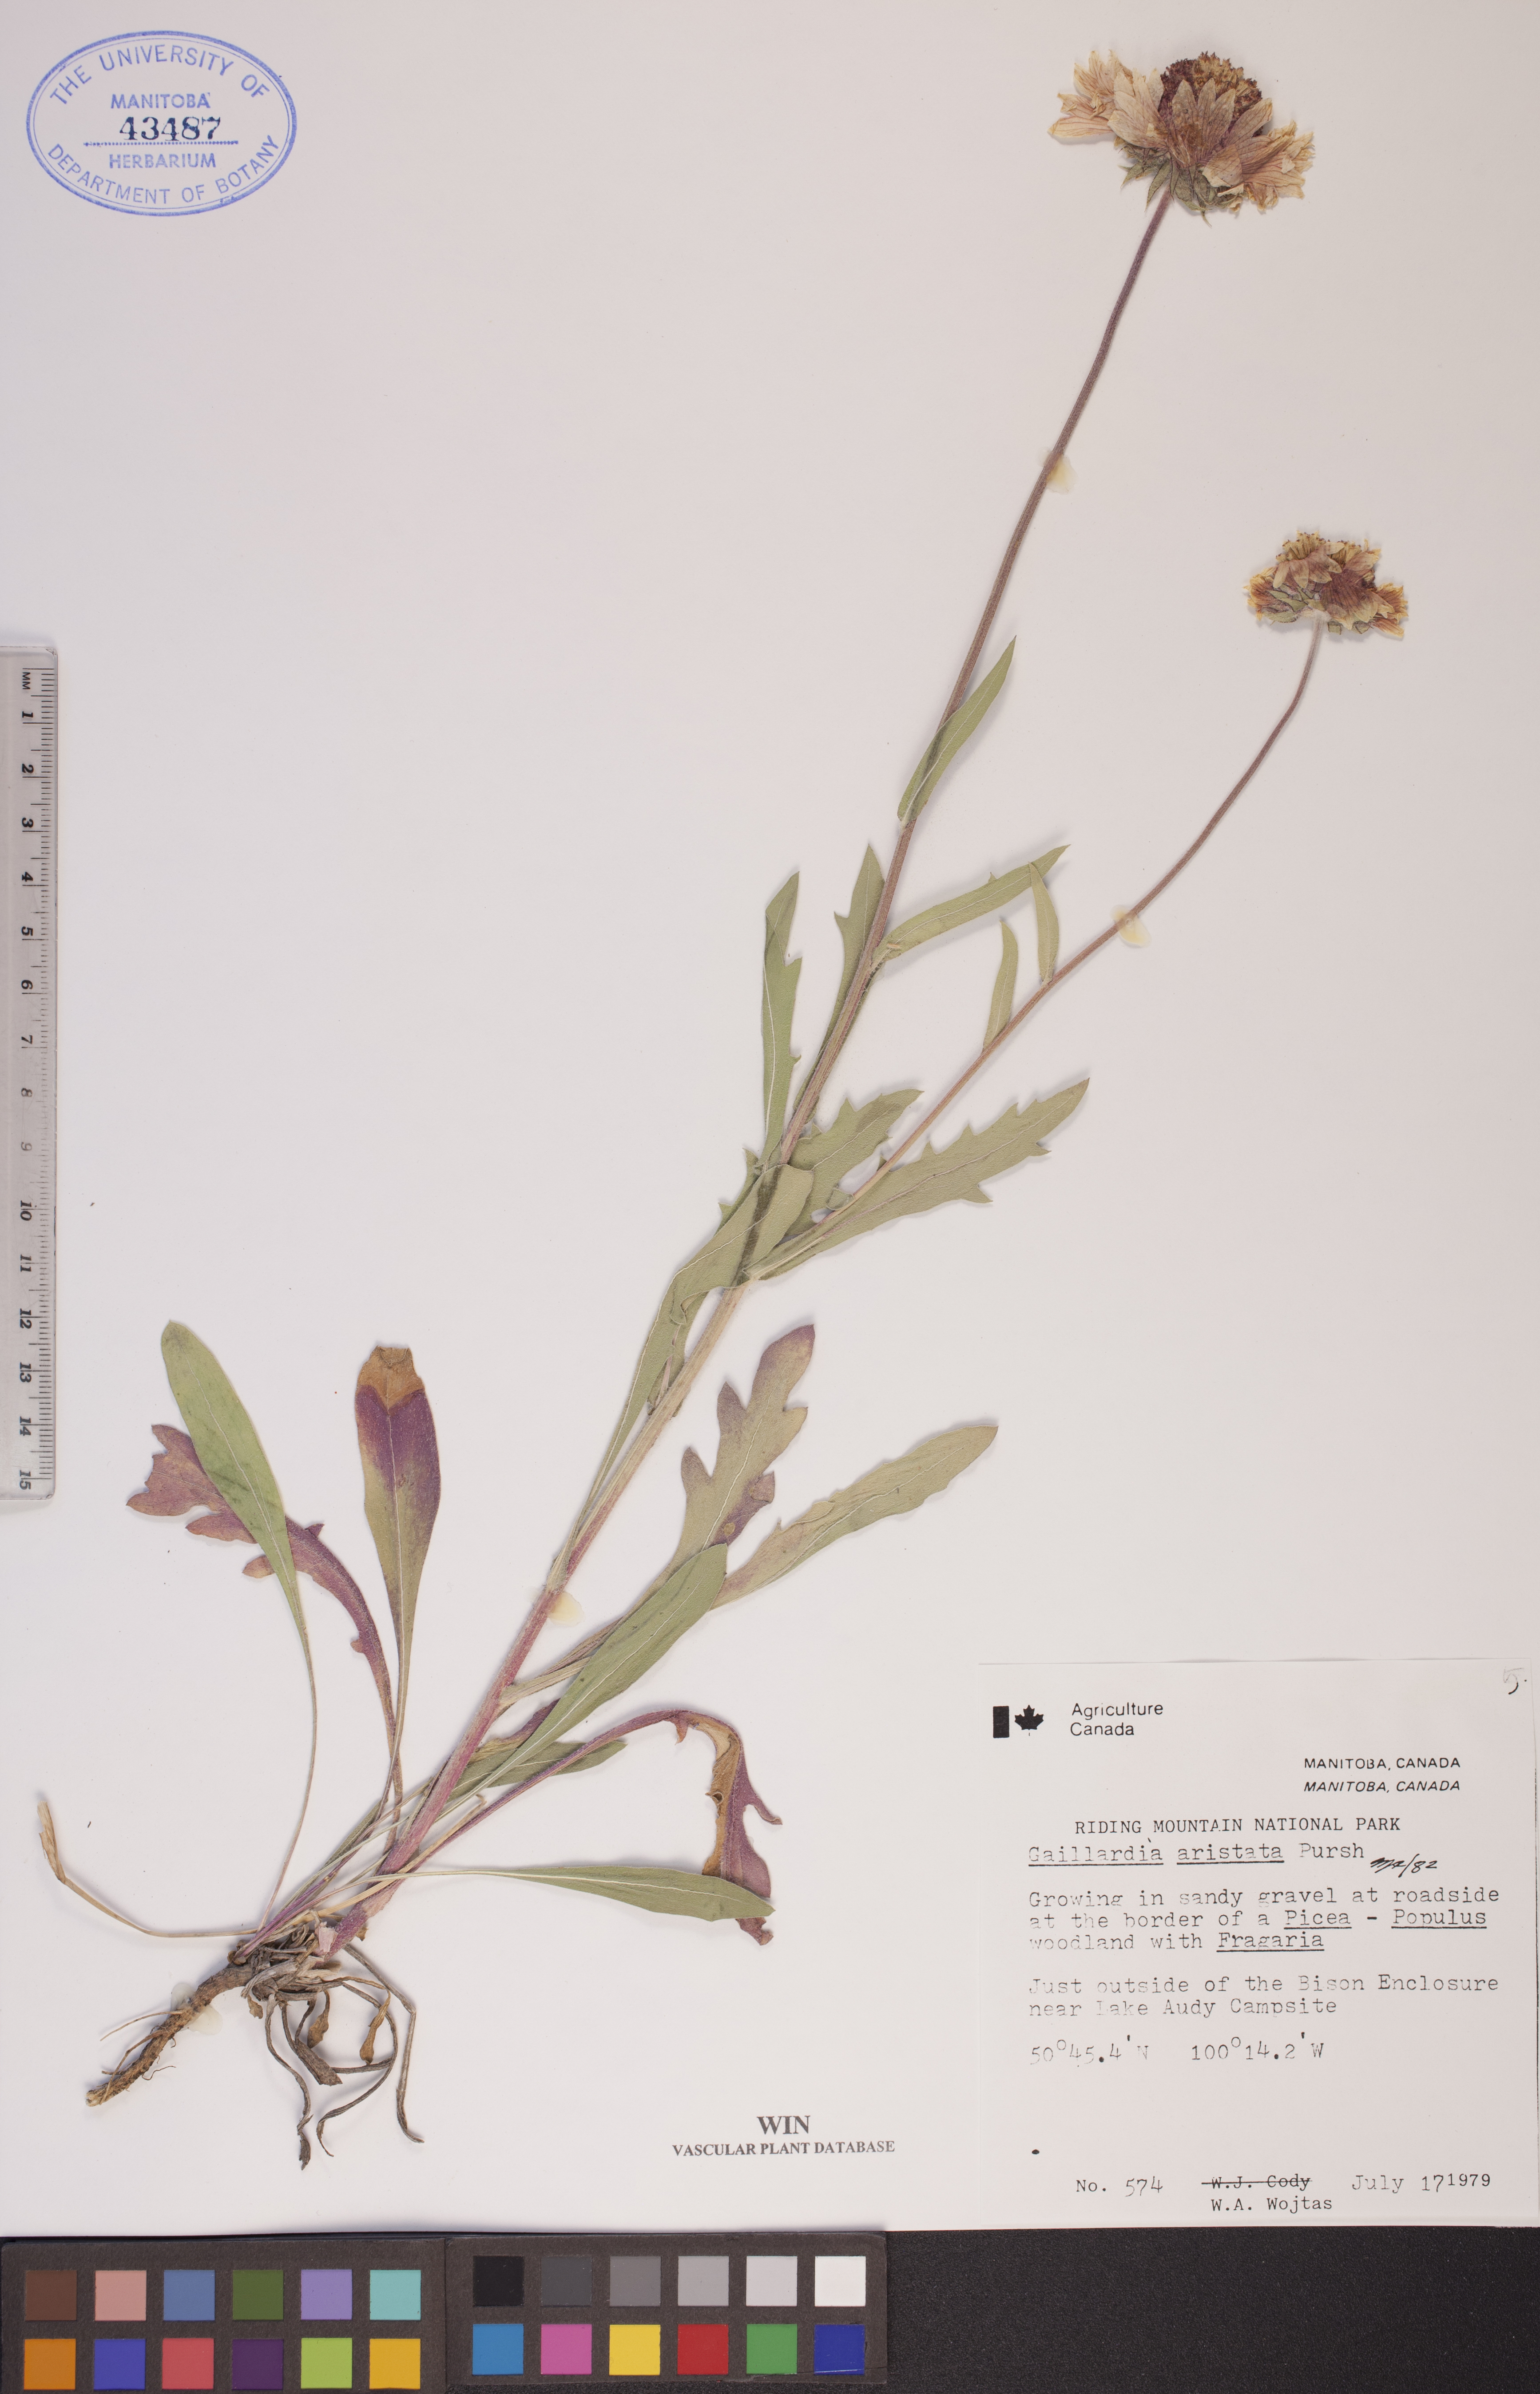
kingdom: Plantae
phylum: Tracheophyta
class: Magnoliopsida
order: Asterales
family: Asteraceae
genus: Gaillardia
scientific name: Gaillardia aristata
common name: Blanket-flower
